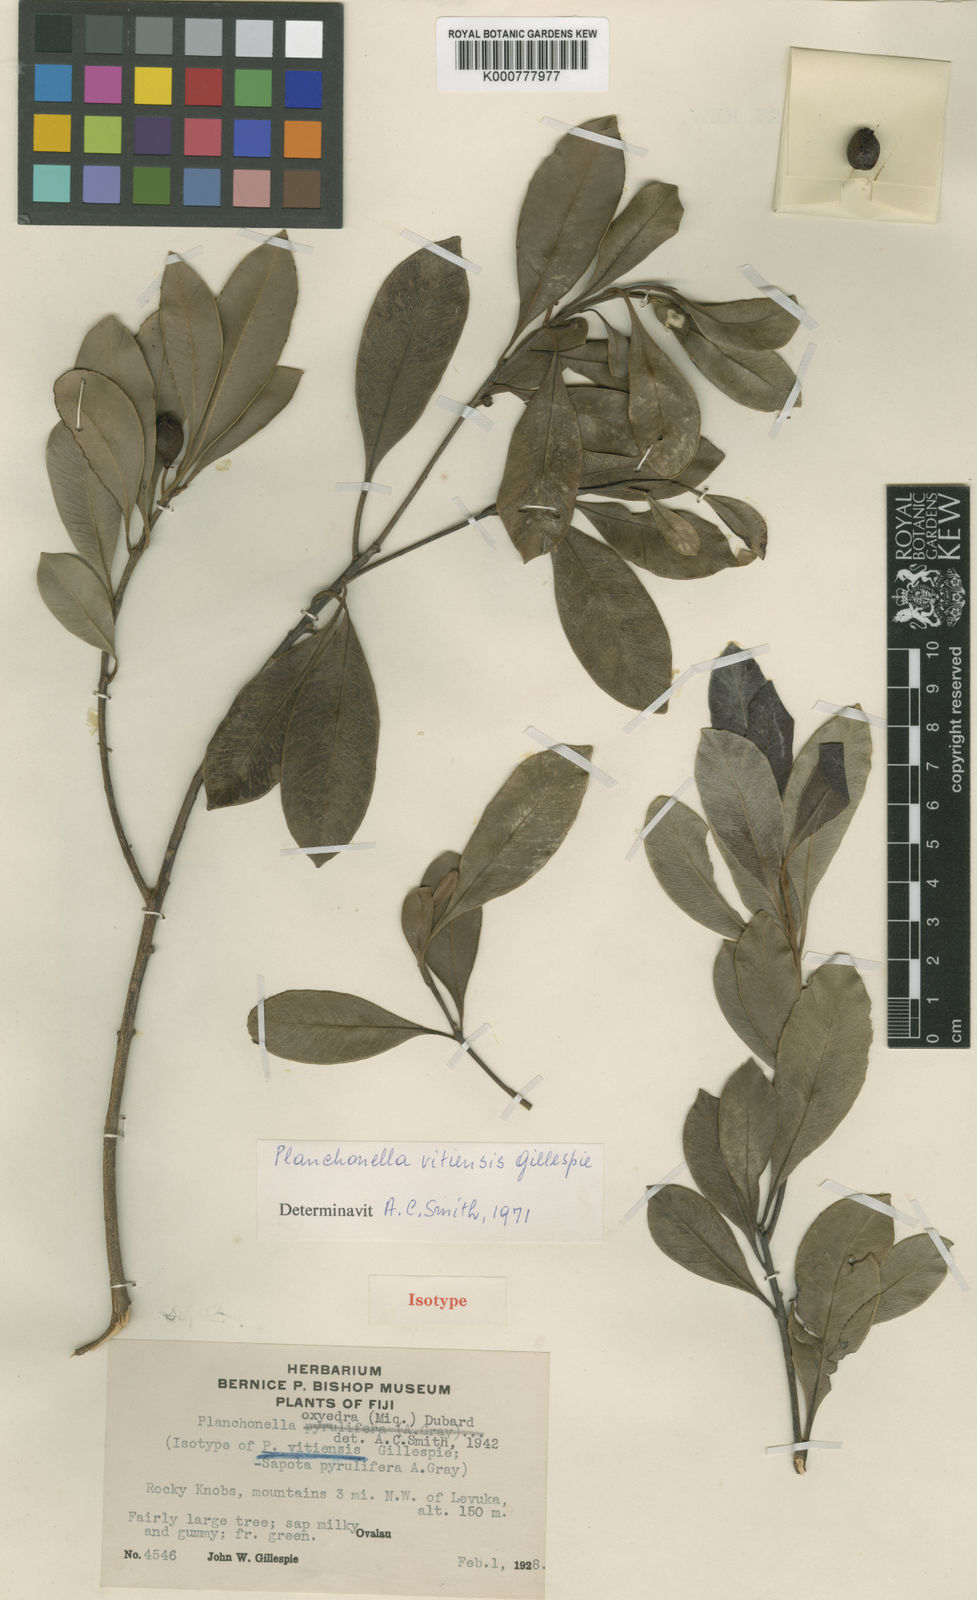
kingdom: Plantae
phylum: Tracheophyta
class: Magnoliopsida
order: Ericales
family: Sapotaceae
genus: Planchonella
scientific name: Planchonella vitiensis
